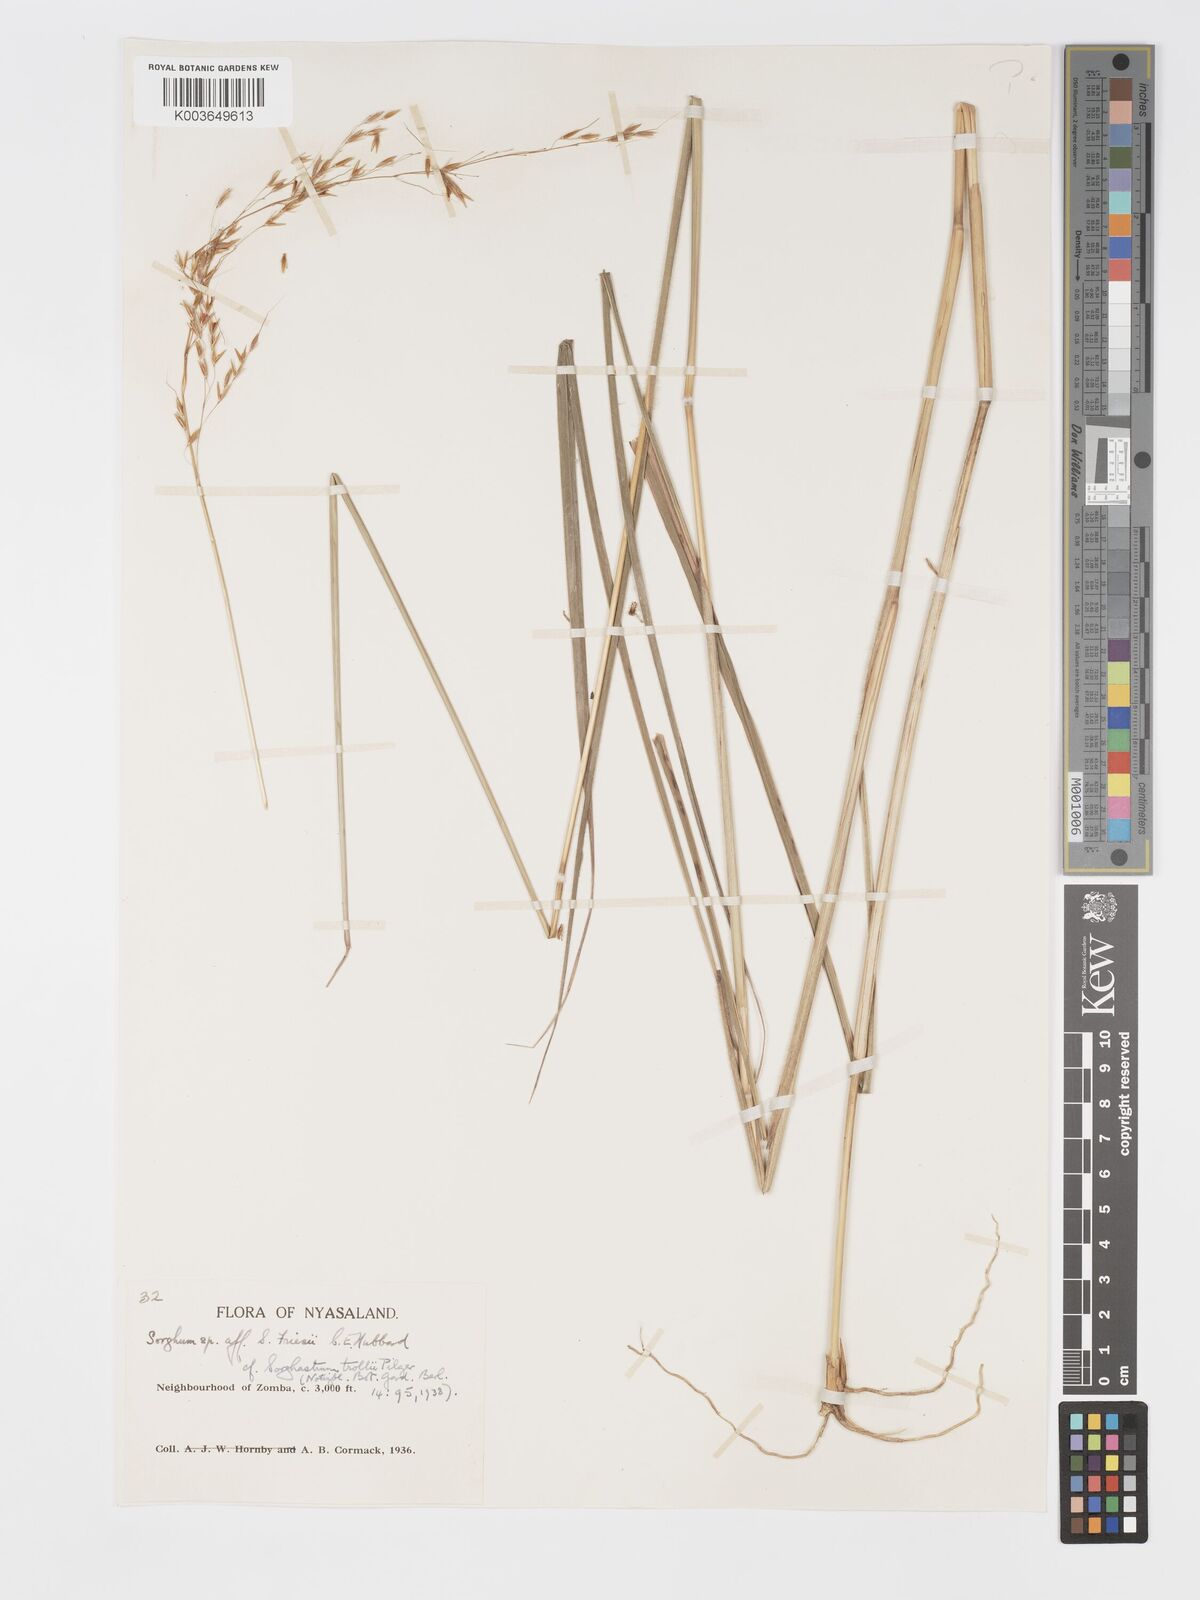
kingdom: Plantae
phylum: Tracheophyta
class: Liliopsida
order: Poales
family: Poaceae
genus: Sorghastrum
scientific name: Sorghastrum stipoides
